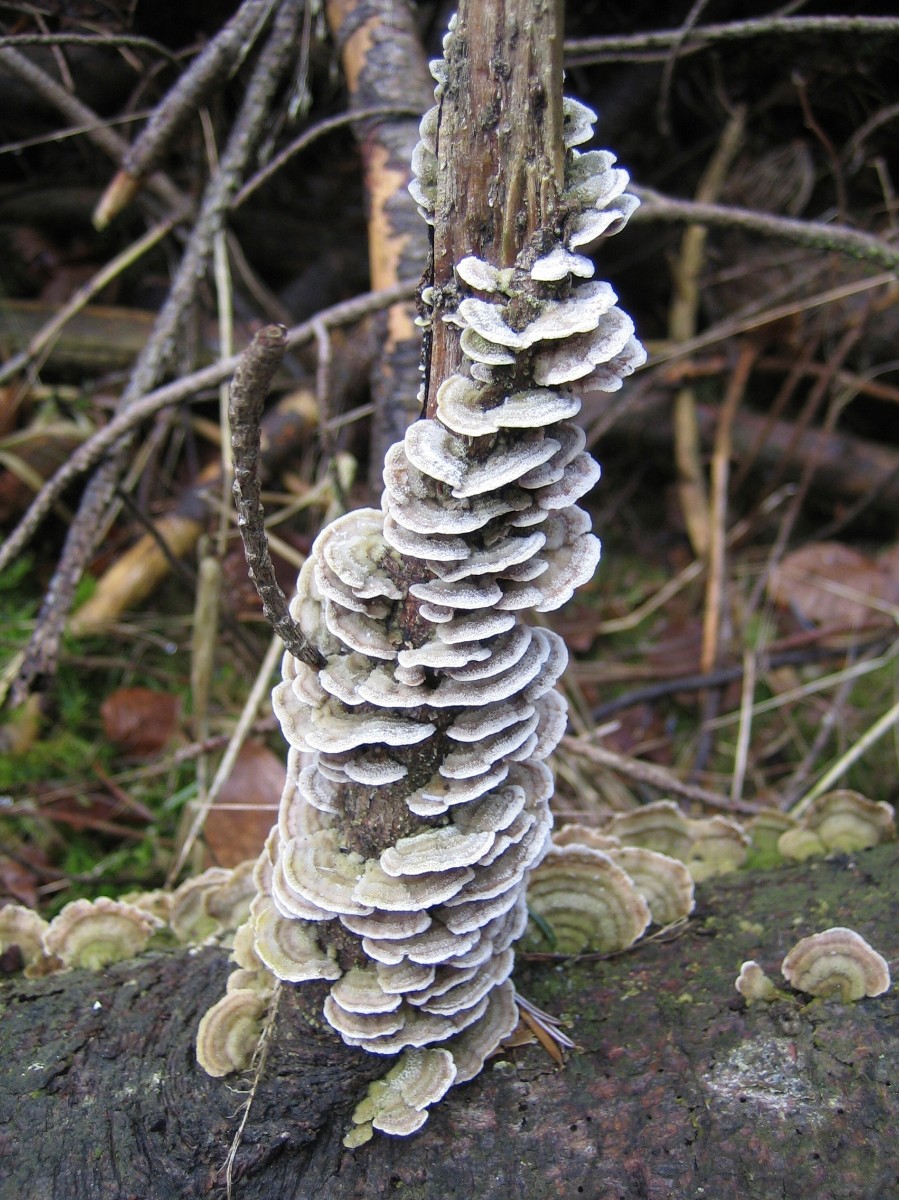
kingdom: Fungi
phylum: Basidiomycota
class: Agaricomycetes
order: Hymenochaetales
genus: Trichaptum
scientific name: Trichaptum abietinum
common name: almindelig violporesvamp
